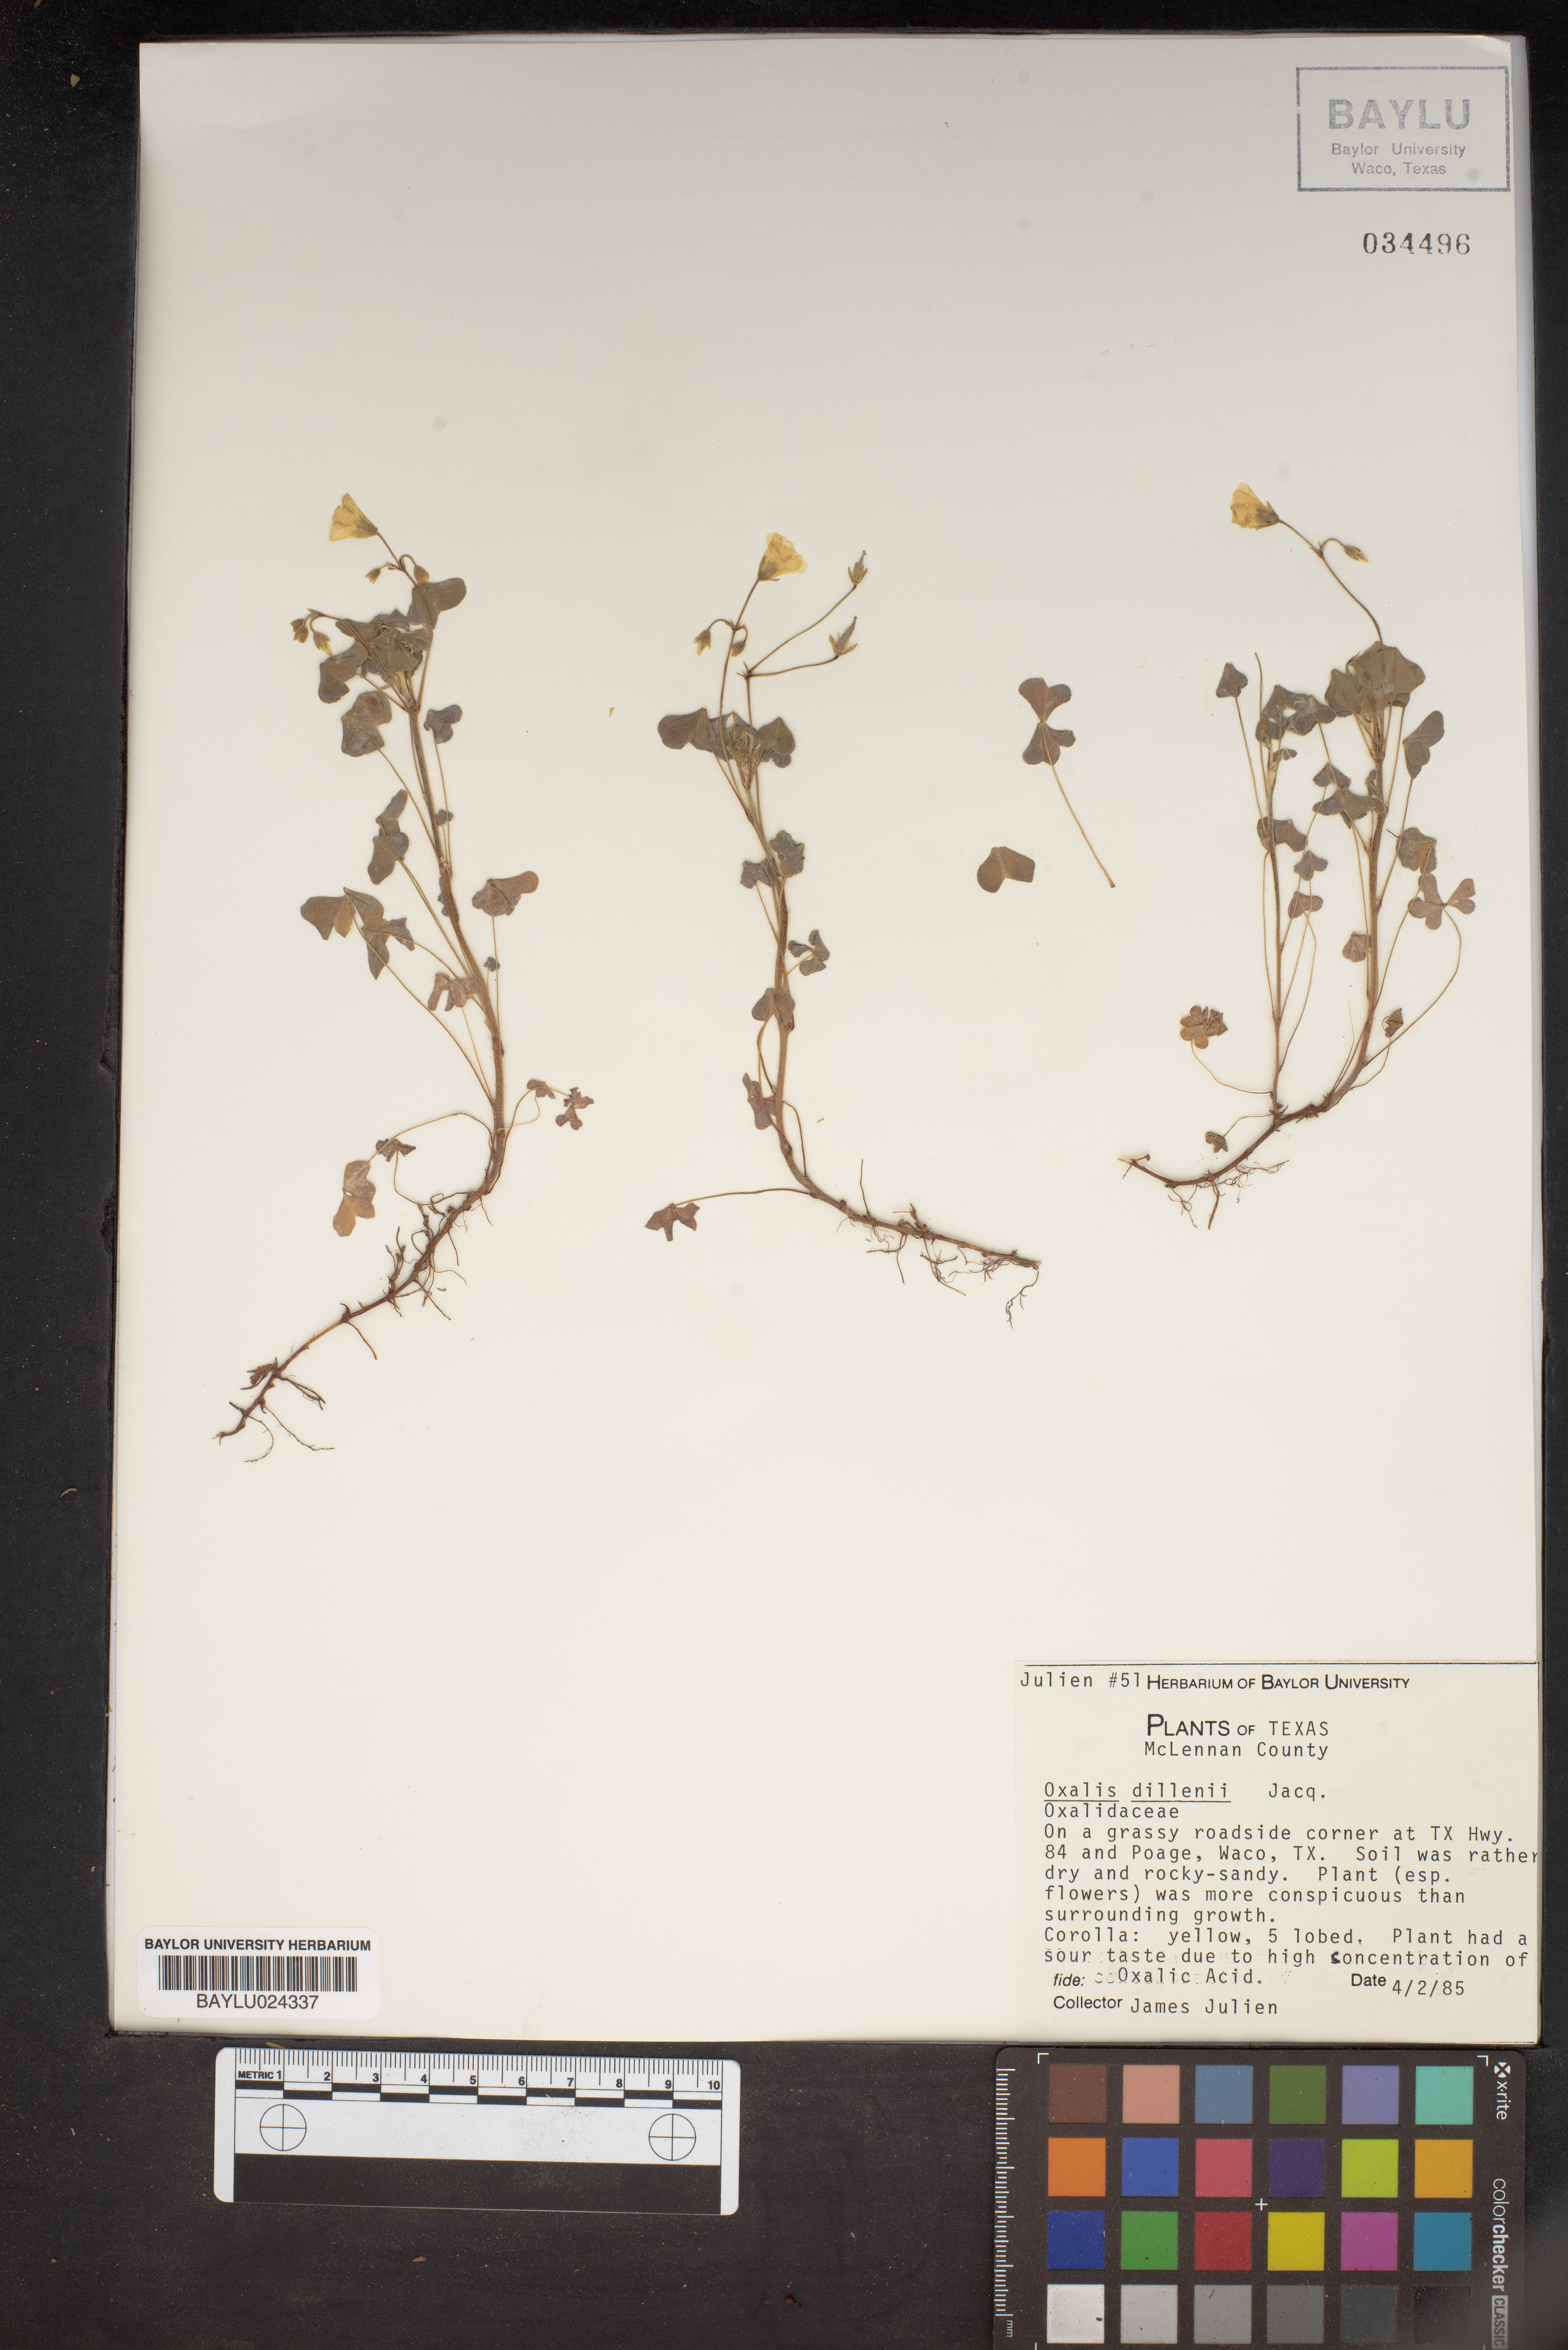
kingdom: Plantae
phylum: Tracheophyta
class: Magnoliopsida
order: Oxalidales
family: Oxalidaceae
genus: Oxalis
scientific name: Oxalis dillenii
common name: Sussex yellow-sorrel
